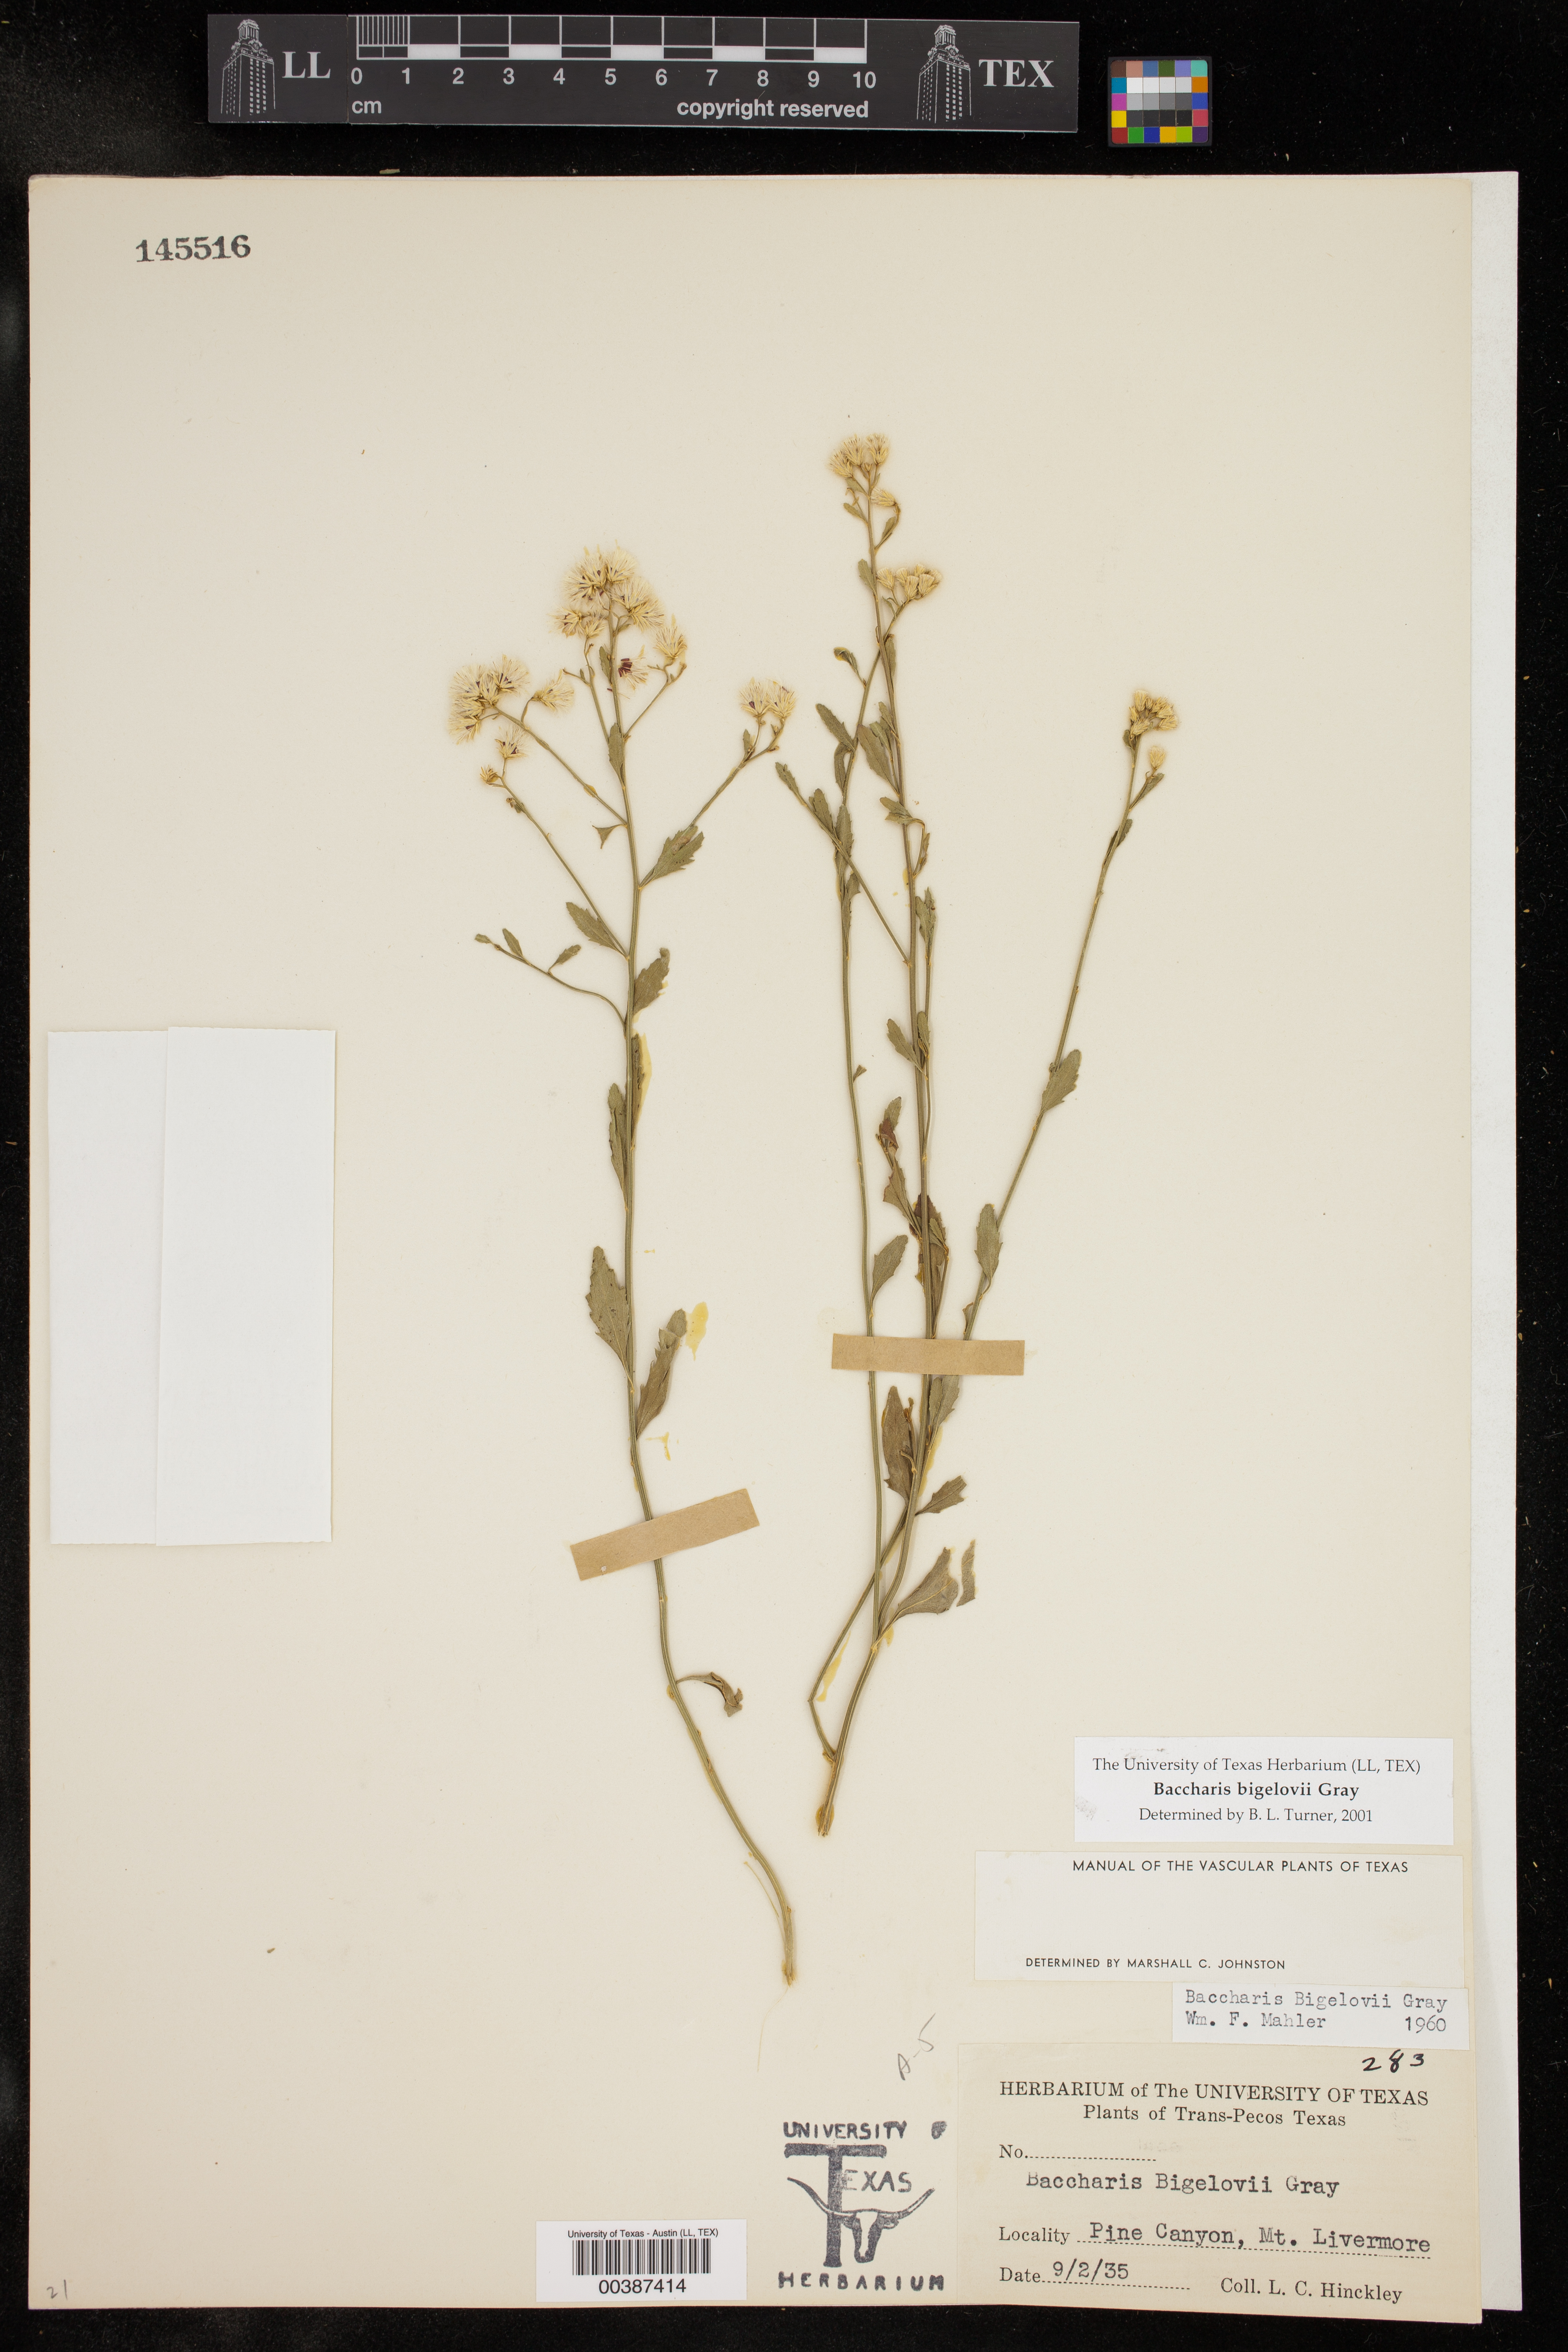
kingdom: Plantae
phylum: Tracheophyta
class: Magnoliopsida
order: Asterales
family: Asteraceae
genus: Baccharis
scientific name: Baccharis bigelovii
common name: Bigelow's false willow
